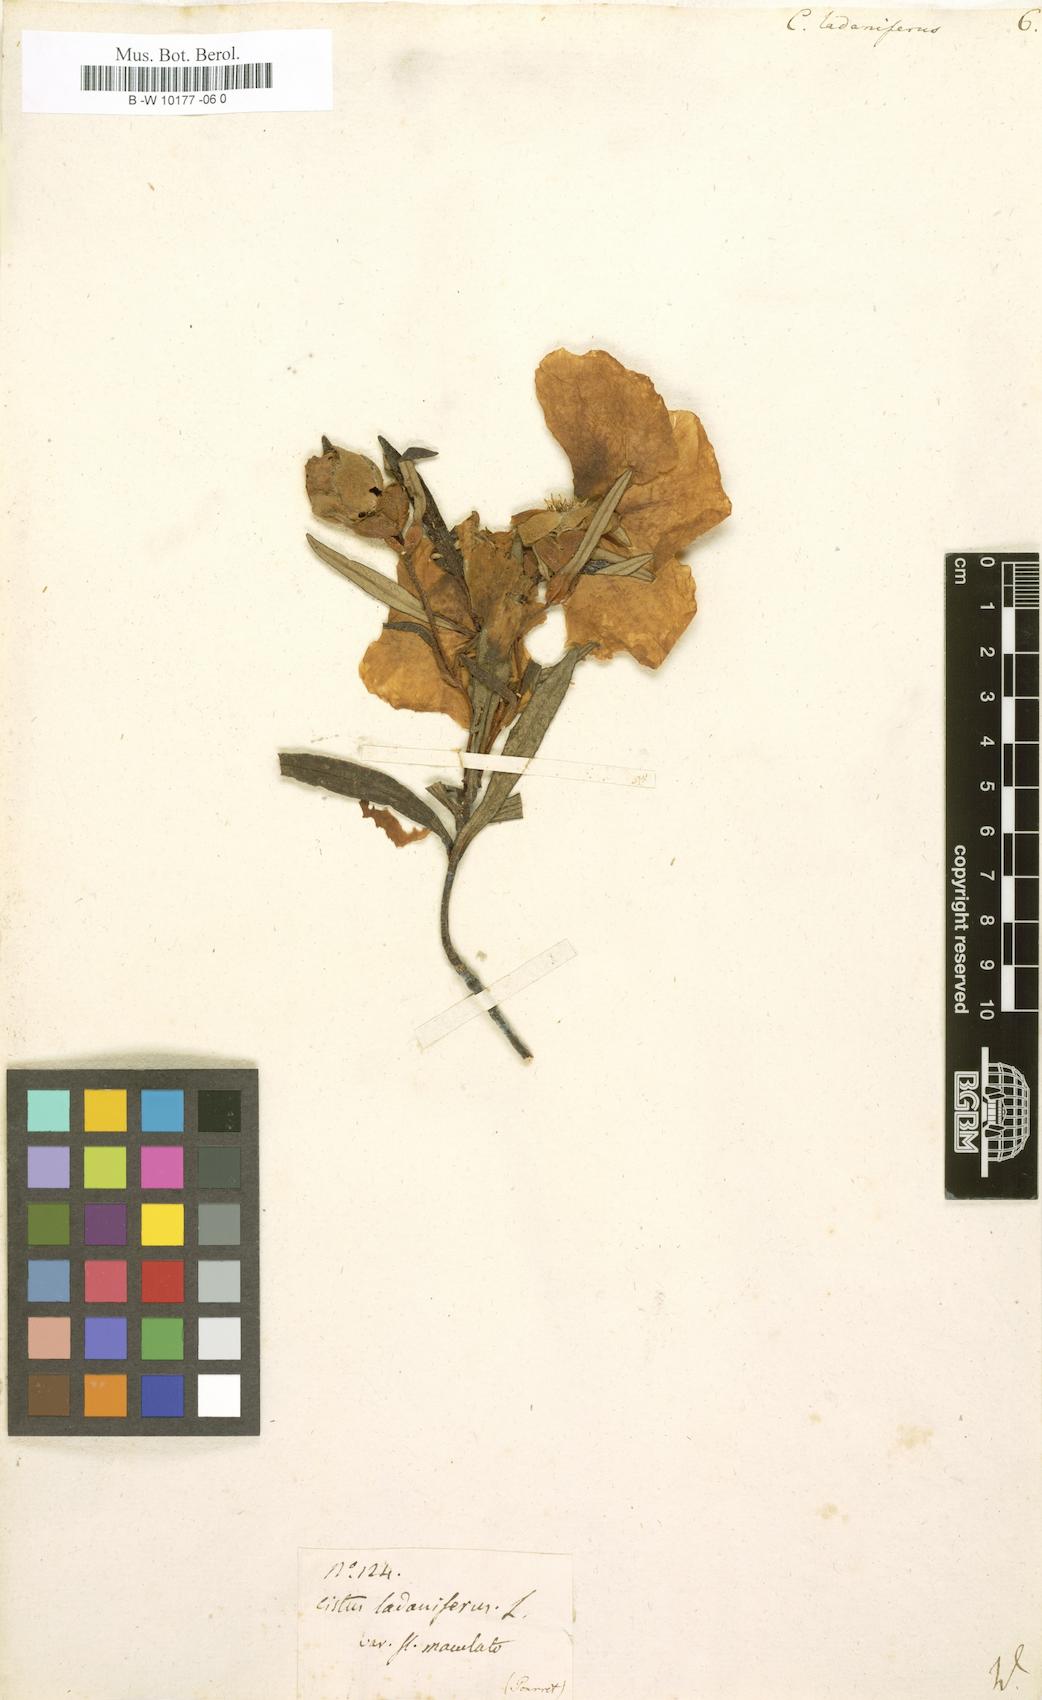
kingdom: Plantae
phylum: Tracheophyta
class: Magnoliopsida
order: Malvales
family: Cistaceae
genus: Cistus
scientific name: Cistus creticus
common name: Cretan rockrose
